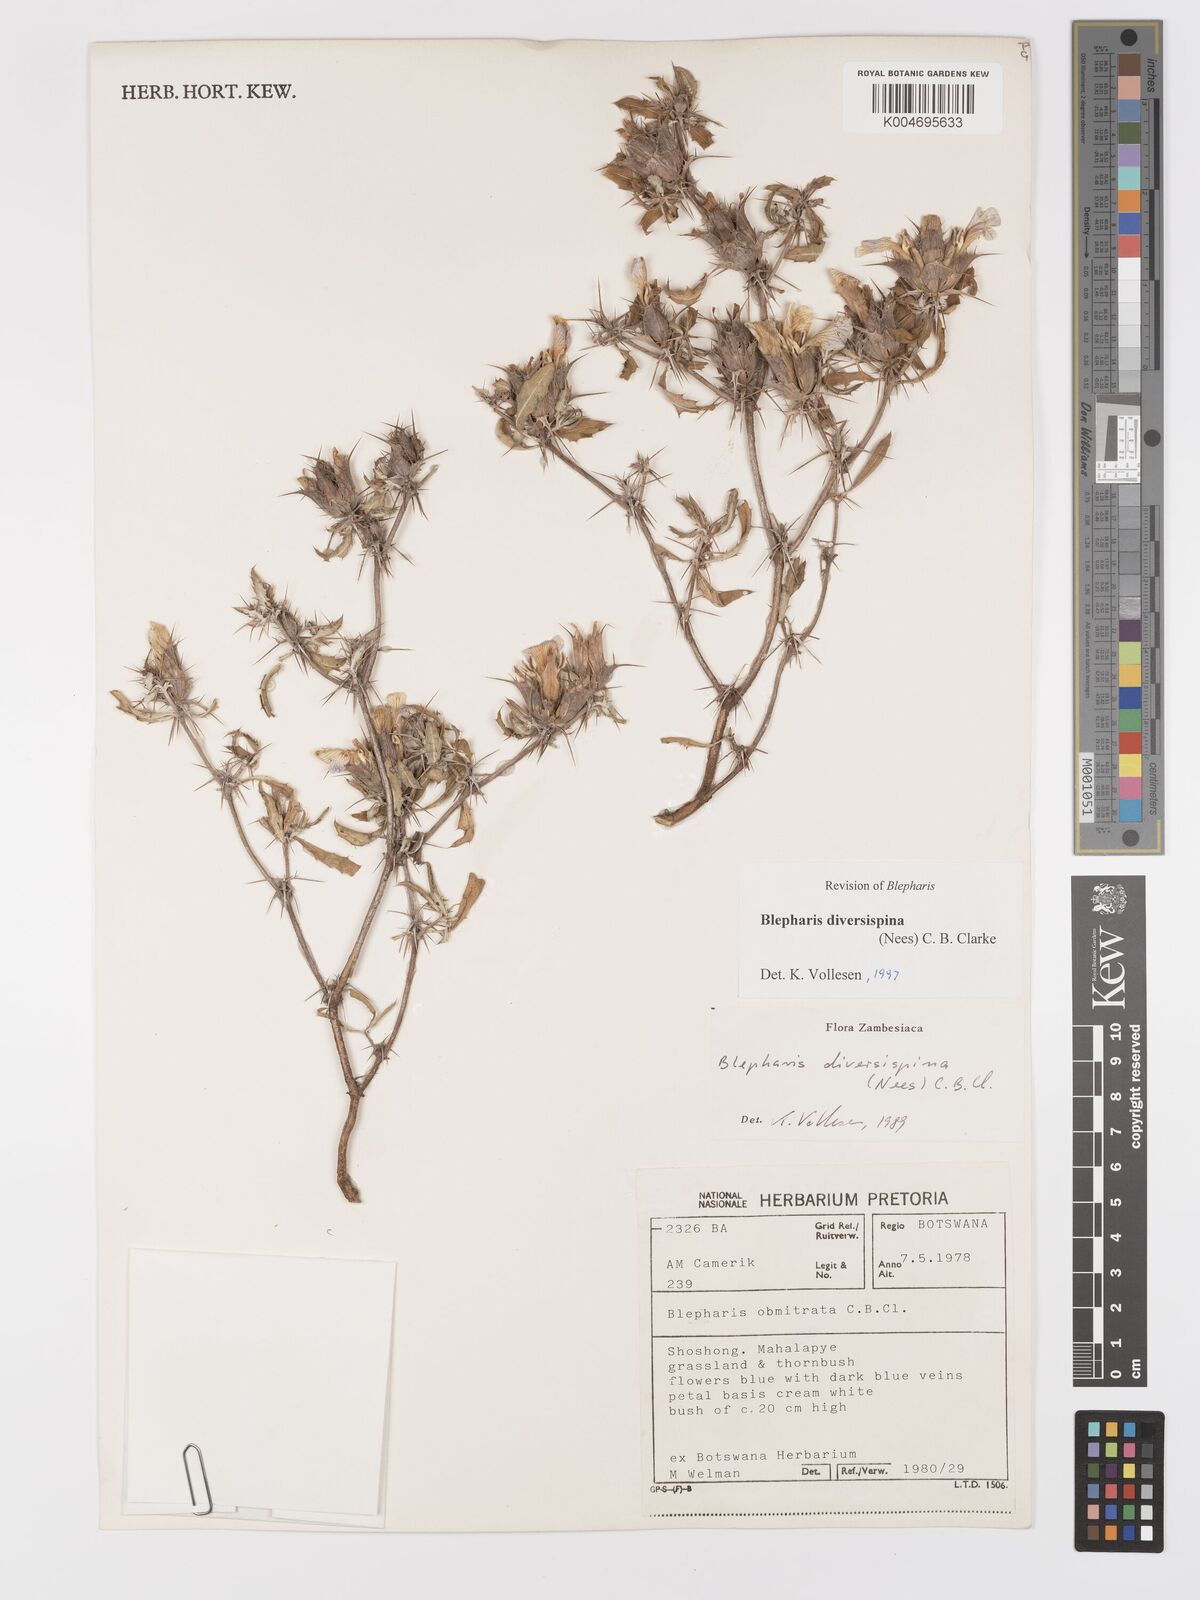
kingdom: Plantae
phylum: Tracheophyta
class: Magnoliopsida
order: Lamiales
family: Acanthaceae
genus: Blepharis
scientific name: Blepharis diversispina
